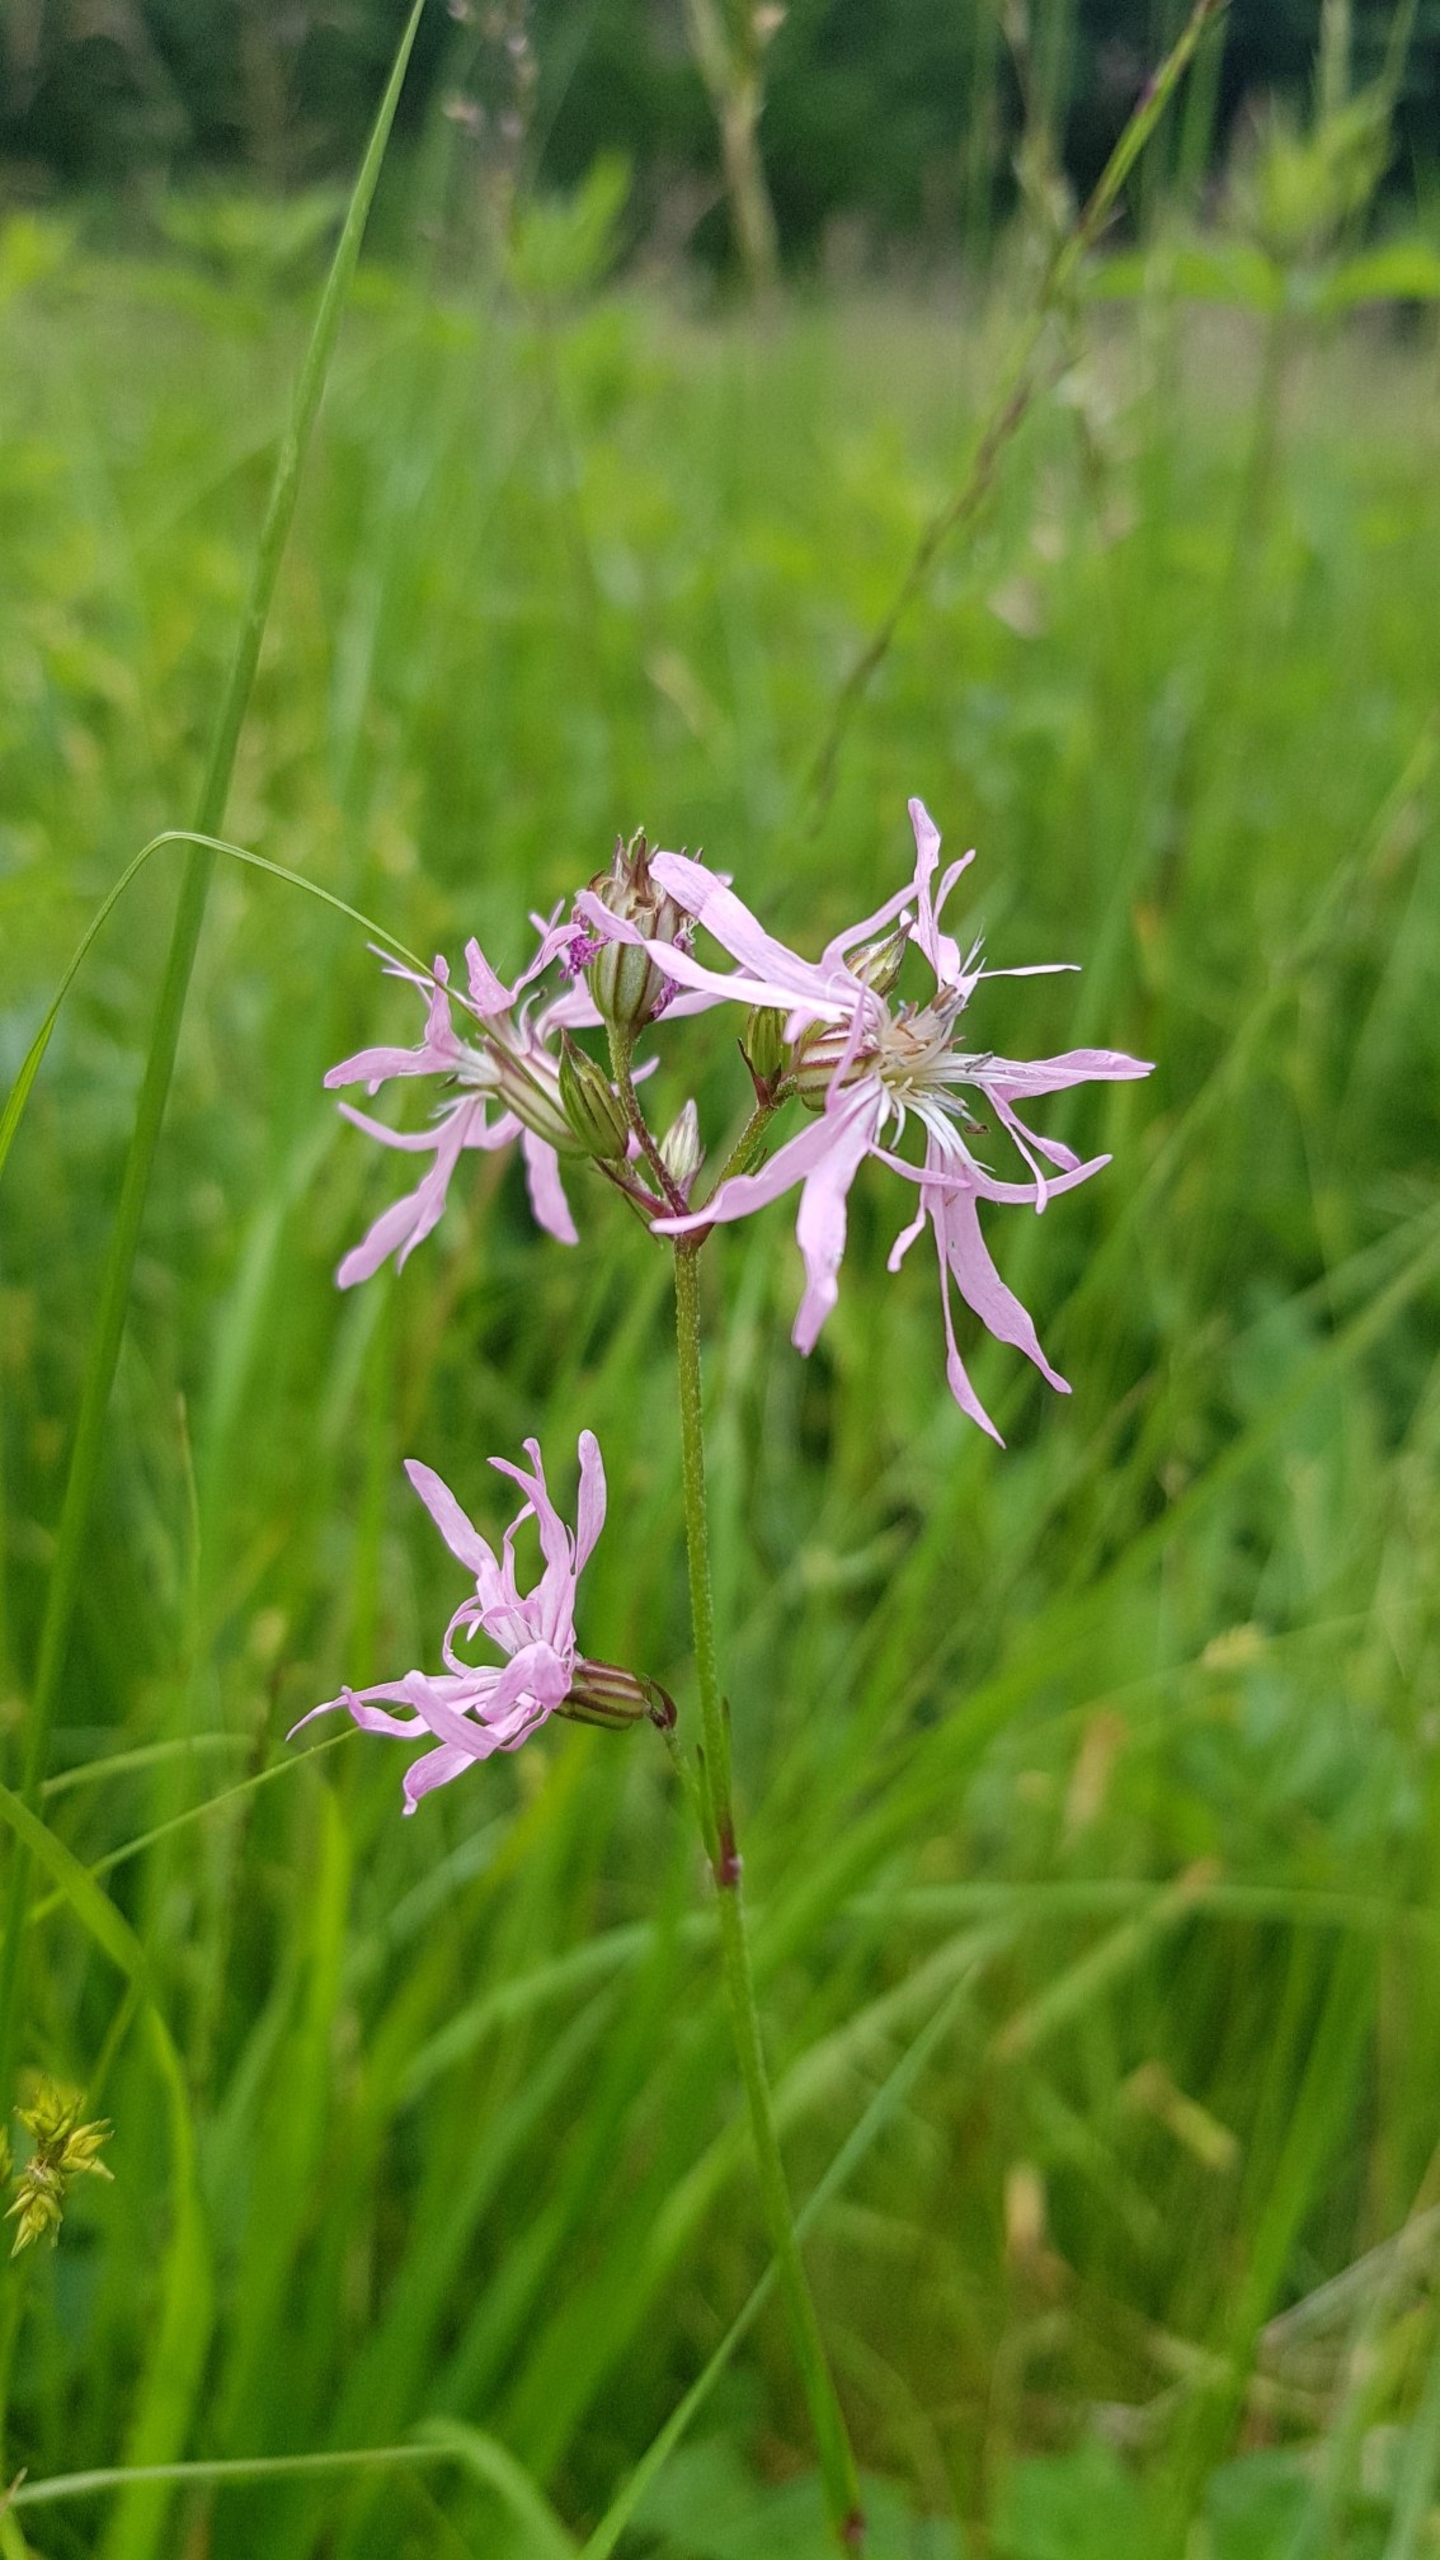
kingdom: Plantae
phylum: Tracheophyta
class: Magnoliopsida
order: Caryophyllales
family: Caryophyllaceae
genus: Silene
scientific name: Silene flos-cuculi
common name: Trævlekrone
